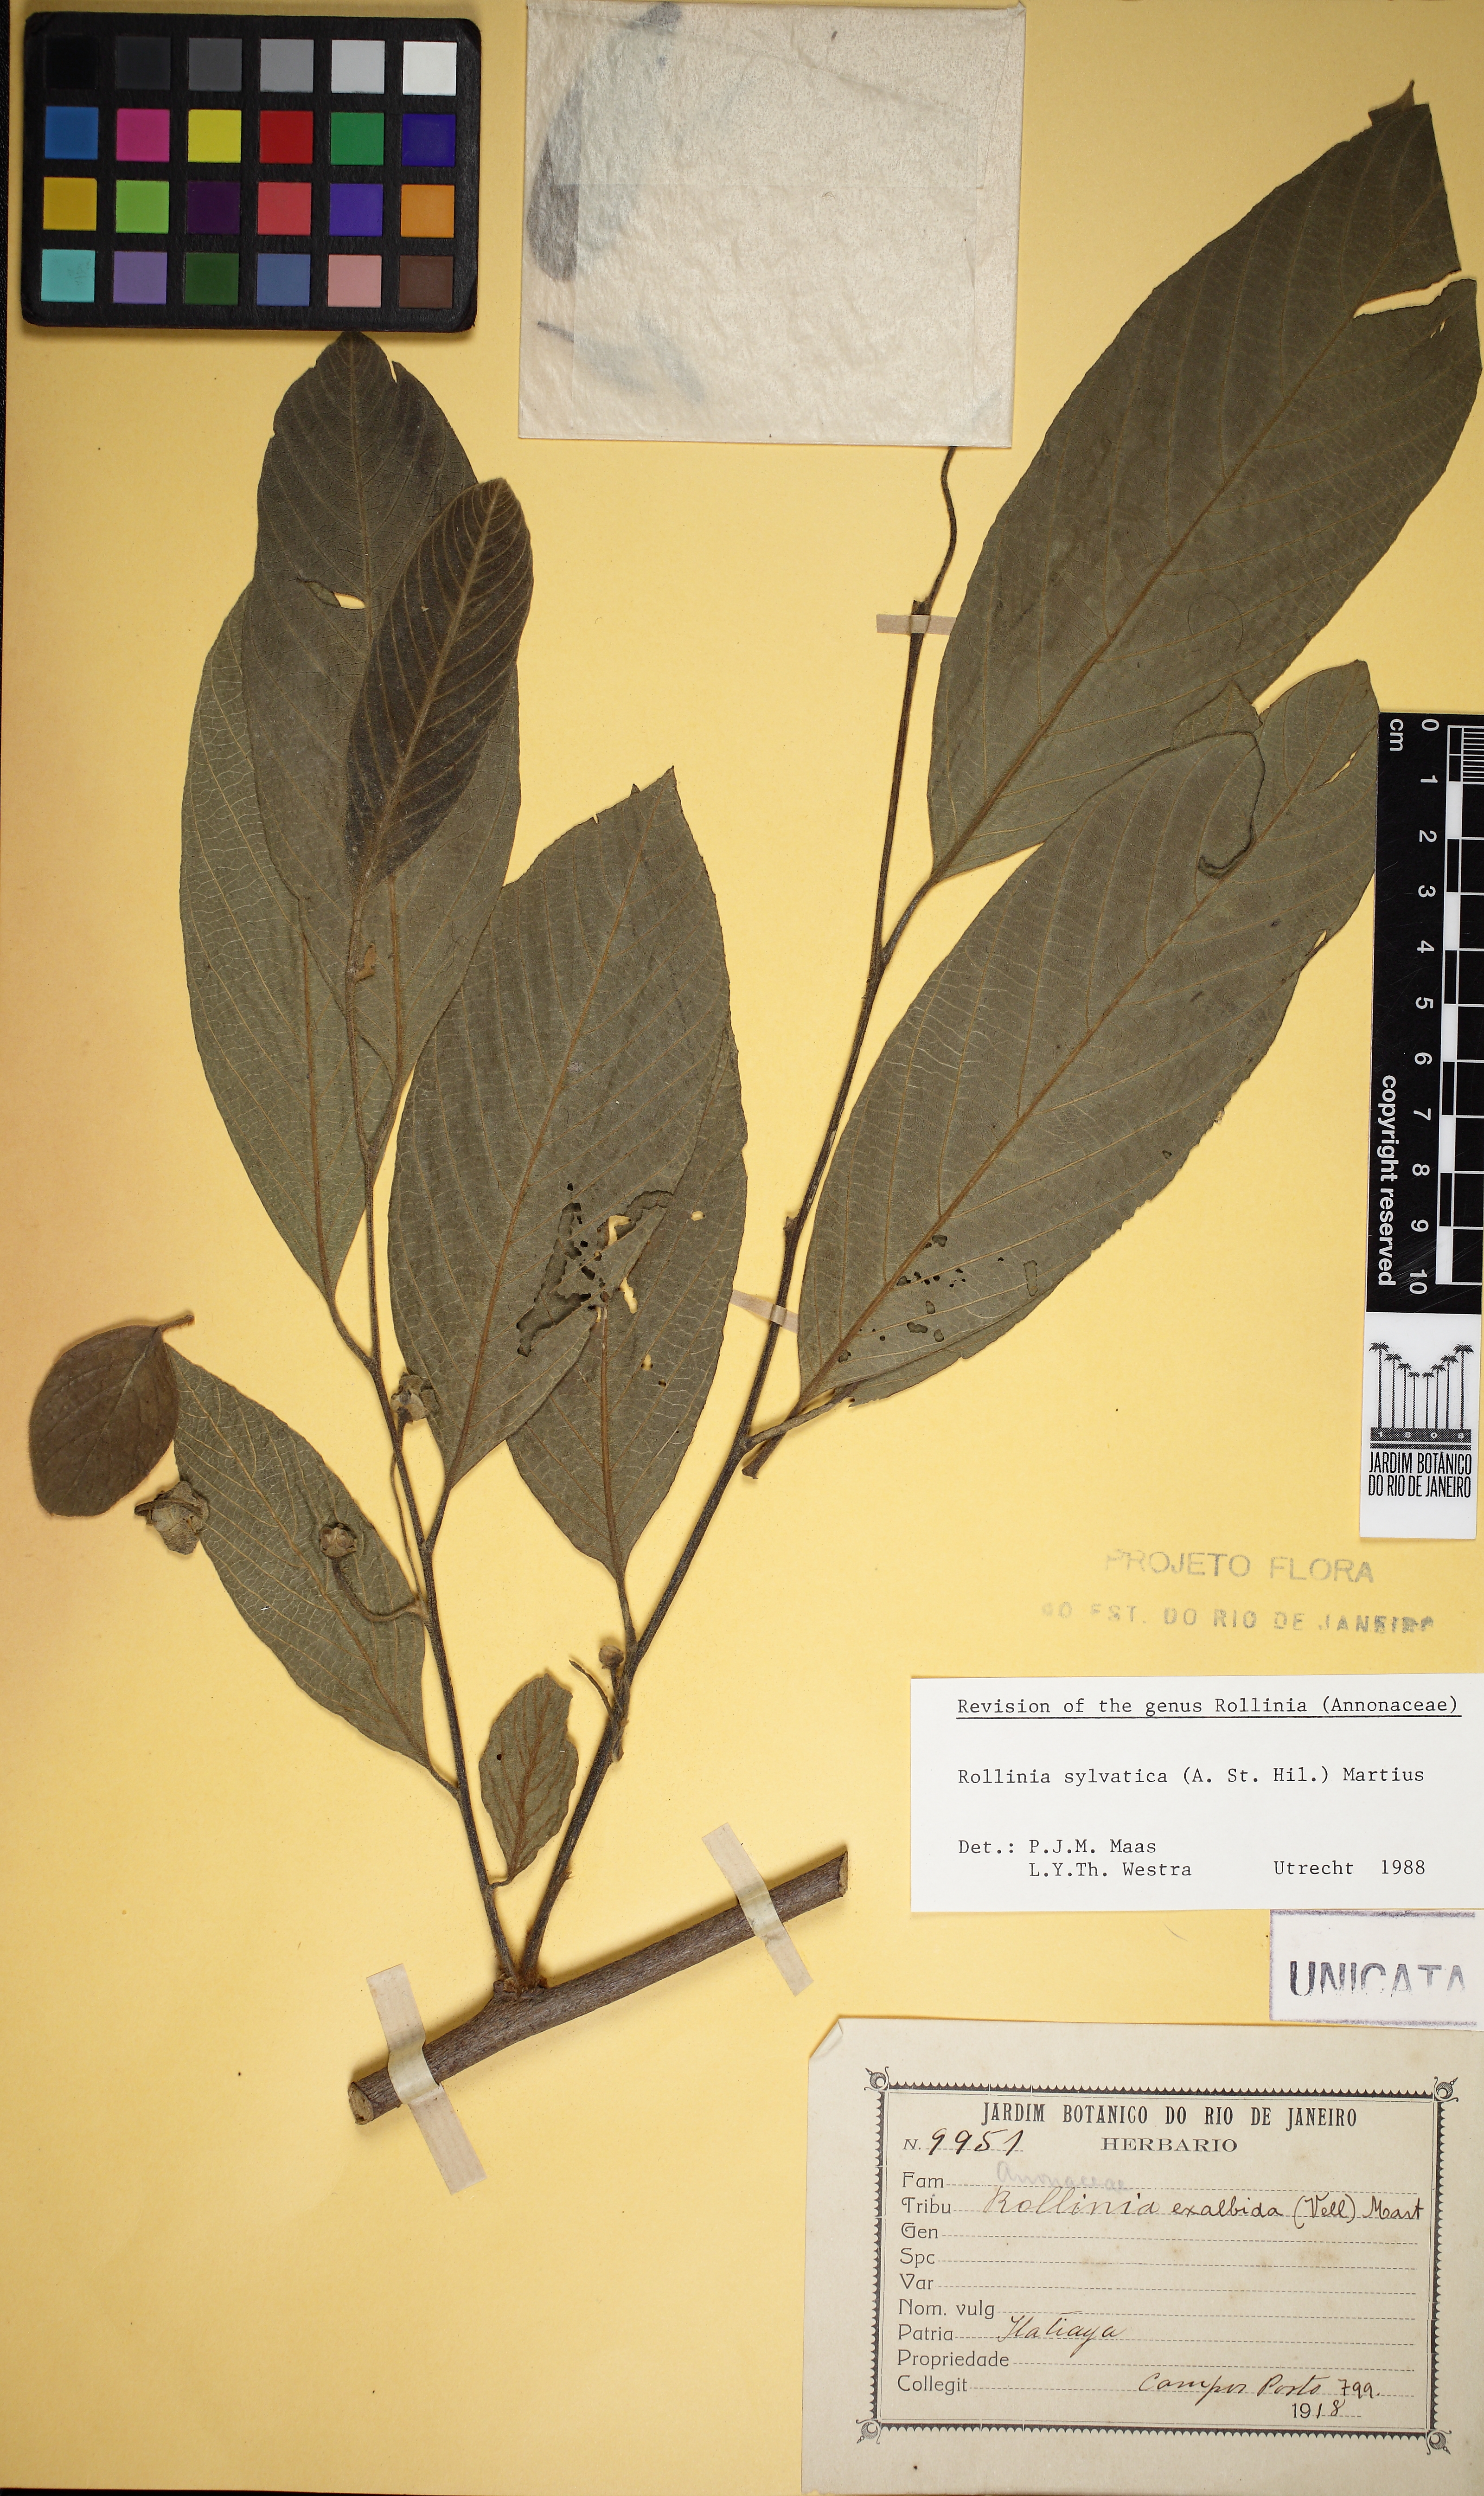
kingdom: Plantae
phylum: Tracheophyta
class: Magnoliopsida
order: Magnoliales
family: Annonaceae
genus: Annona
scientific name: Annona sylvatica
